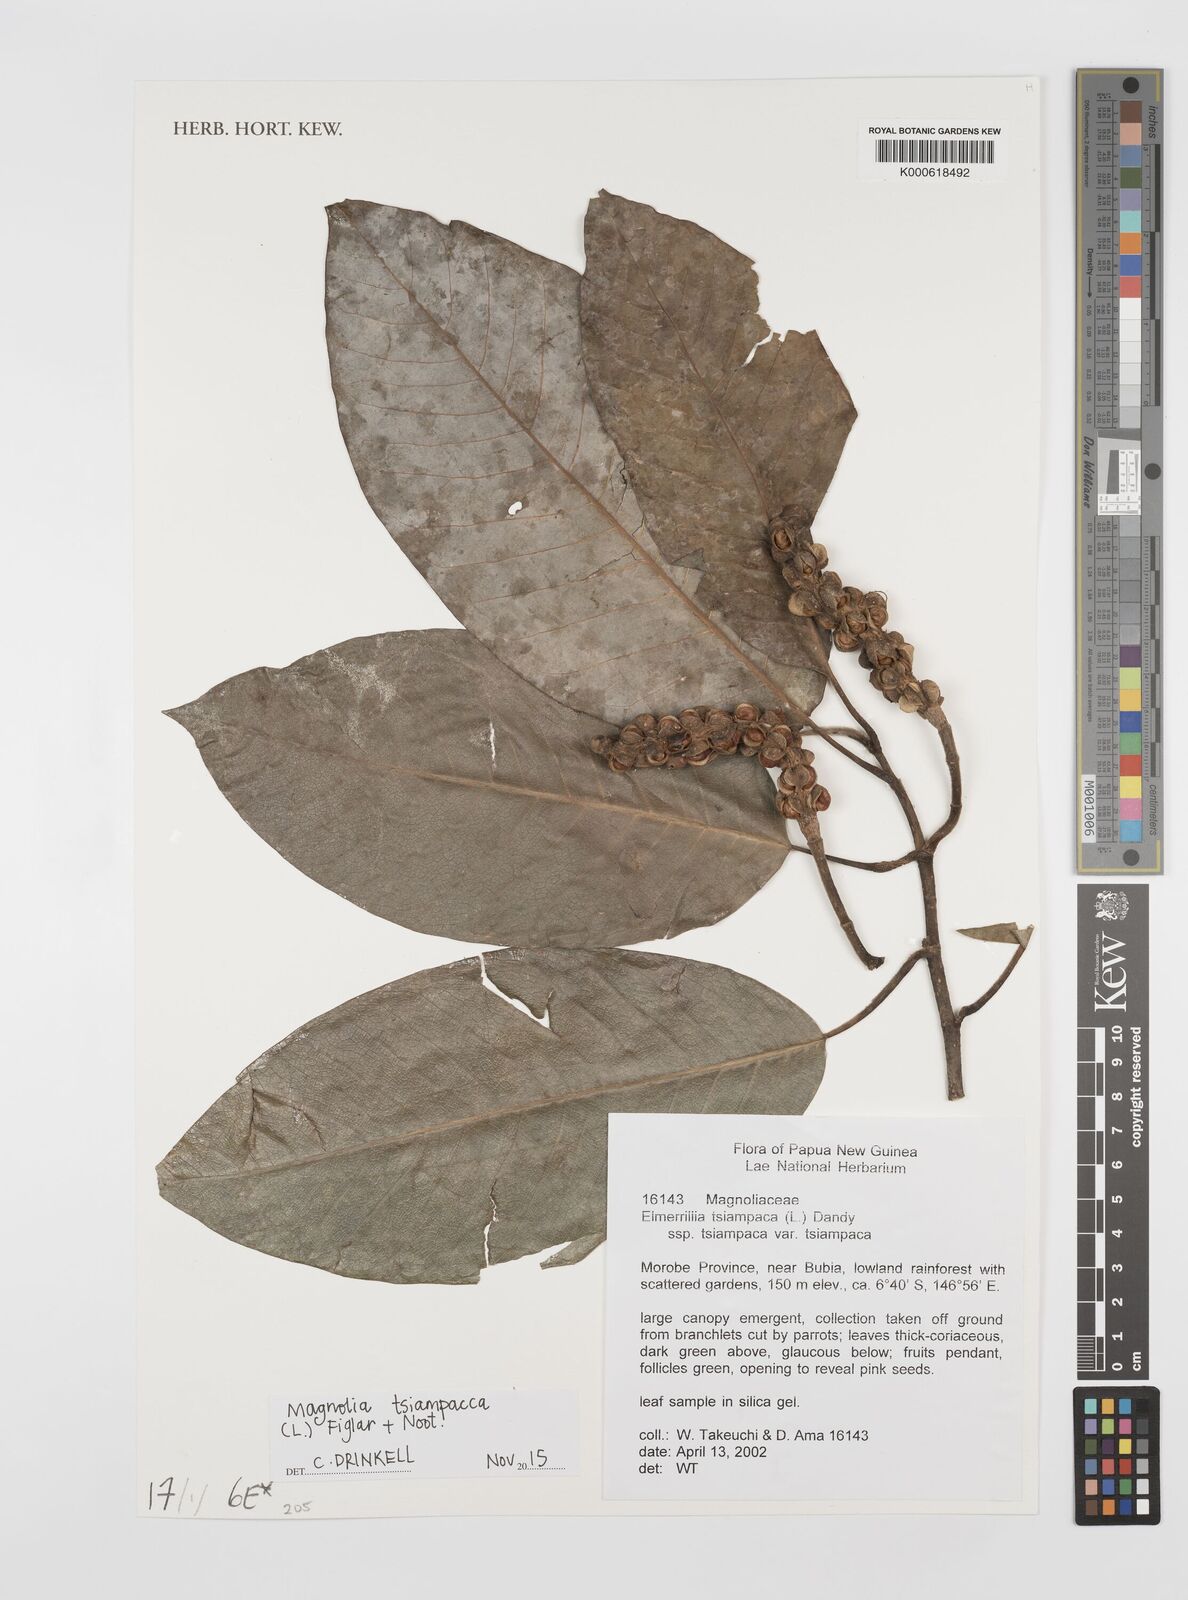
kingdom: Plantae
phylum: Tracheophyta
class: Magnoliopsida
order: Magnoliales
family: Magnoliaceae
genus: Magnolia
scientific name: Magnolia tsiampacca
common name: Wau-beech
